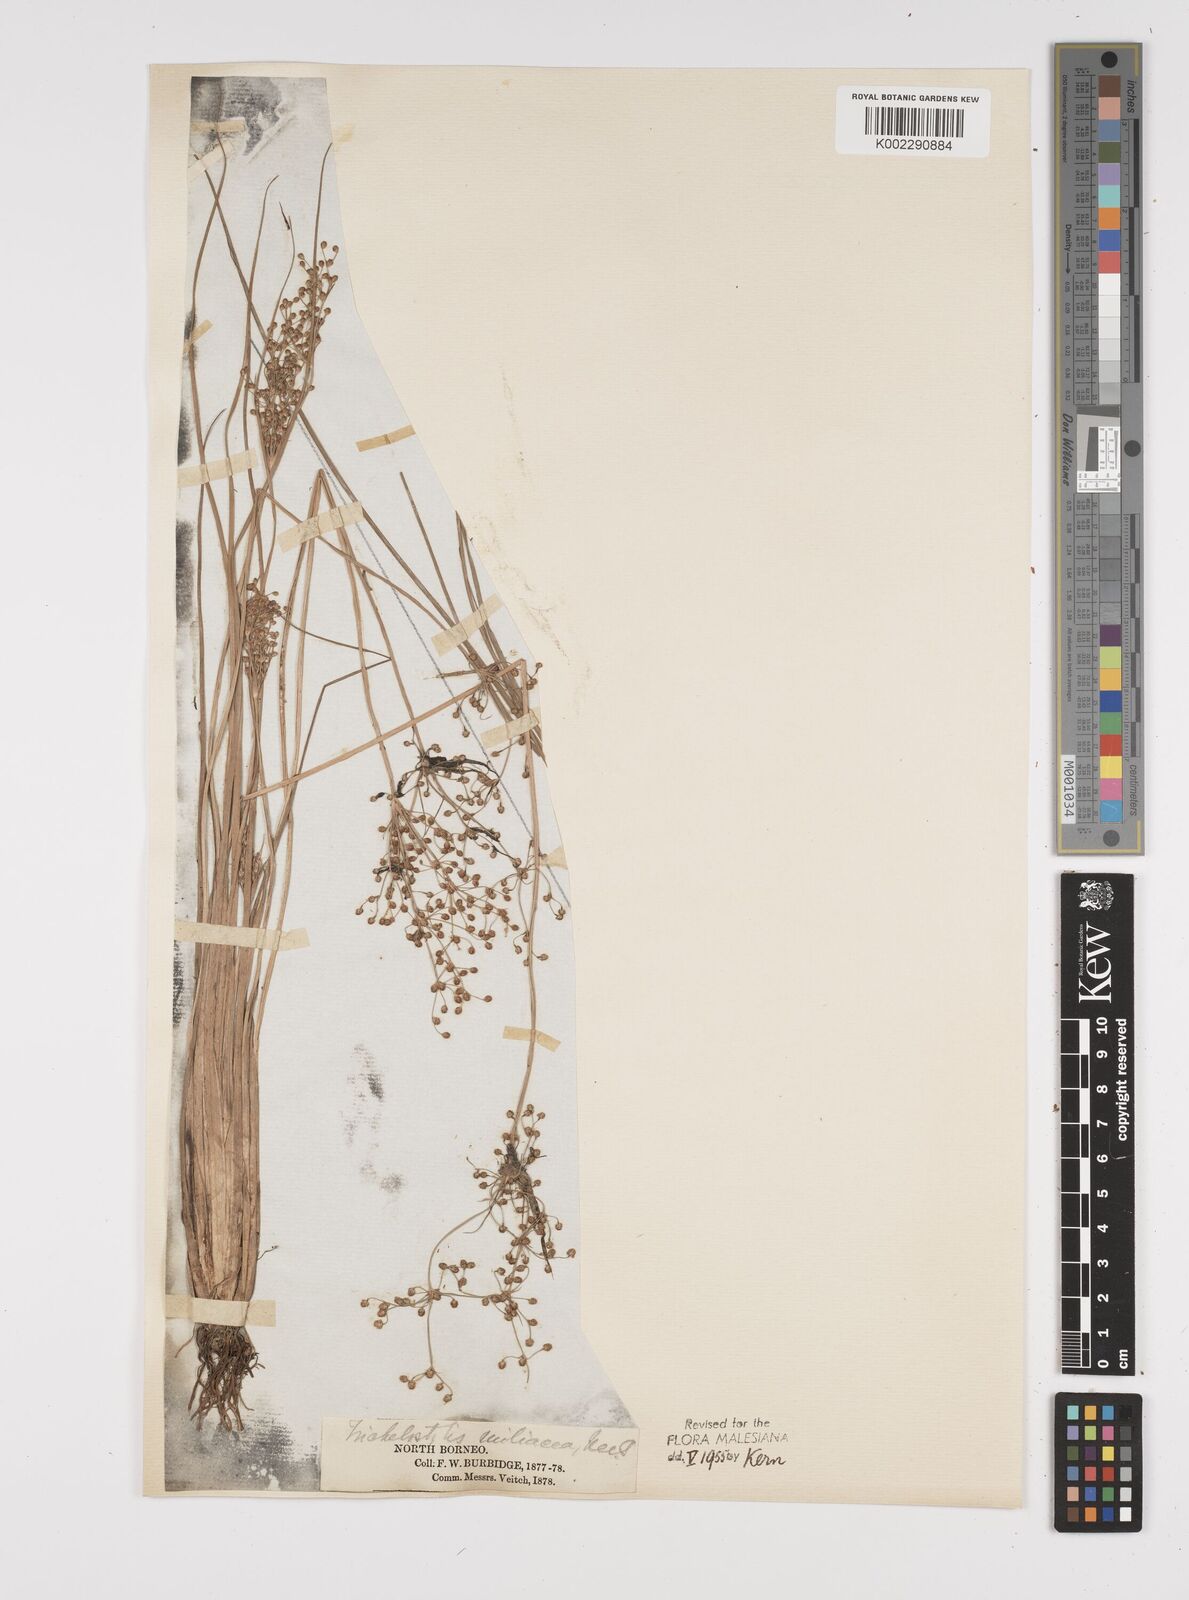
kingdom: Plantae
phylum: Tracheophyta
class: Liliopsida
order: Poales
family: Cyperaceae
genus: Fimbristylis
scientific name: Fimbristylis littoralis
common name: Fimbry
